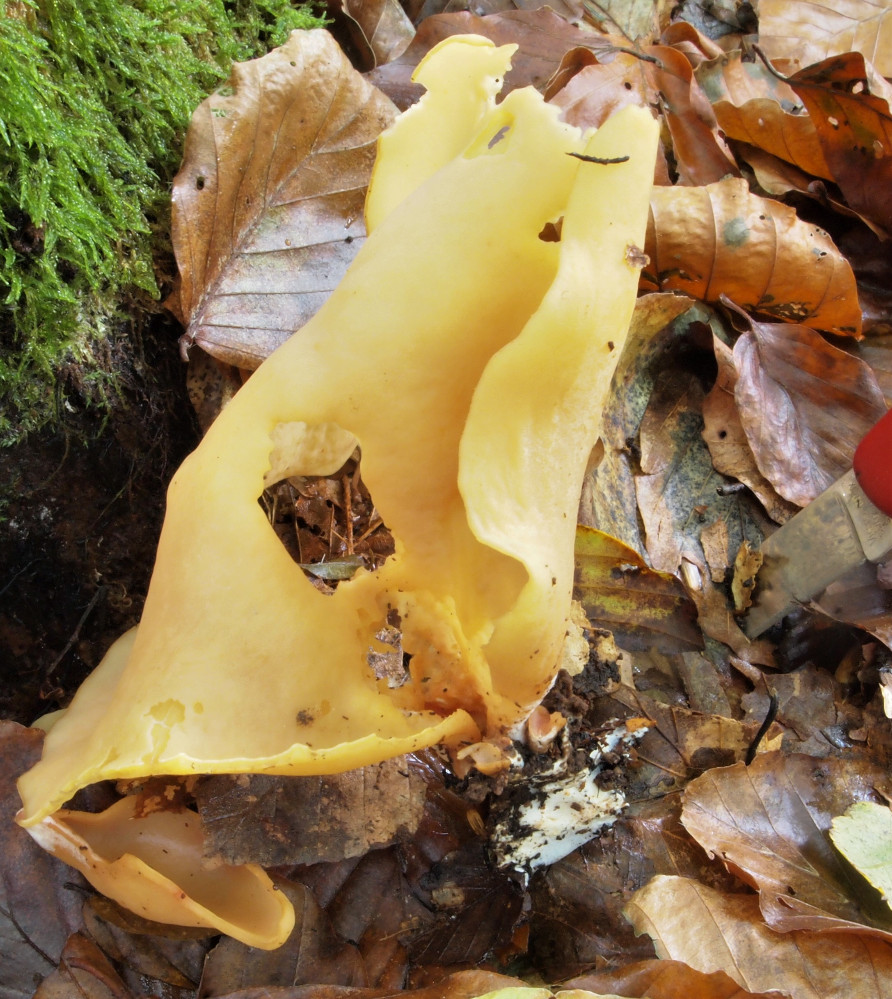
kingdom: Fungi
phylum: Ascomycota
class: Pezizomycetes
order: Pezizales
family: Otideaceae
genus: Otidea
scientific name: Otidea onotica
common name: æsel-ørebæger
